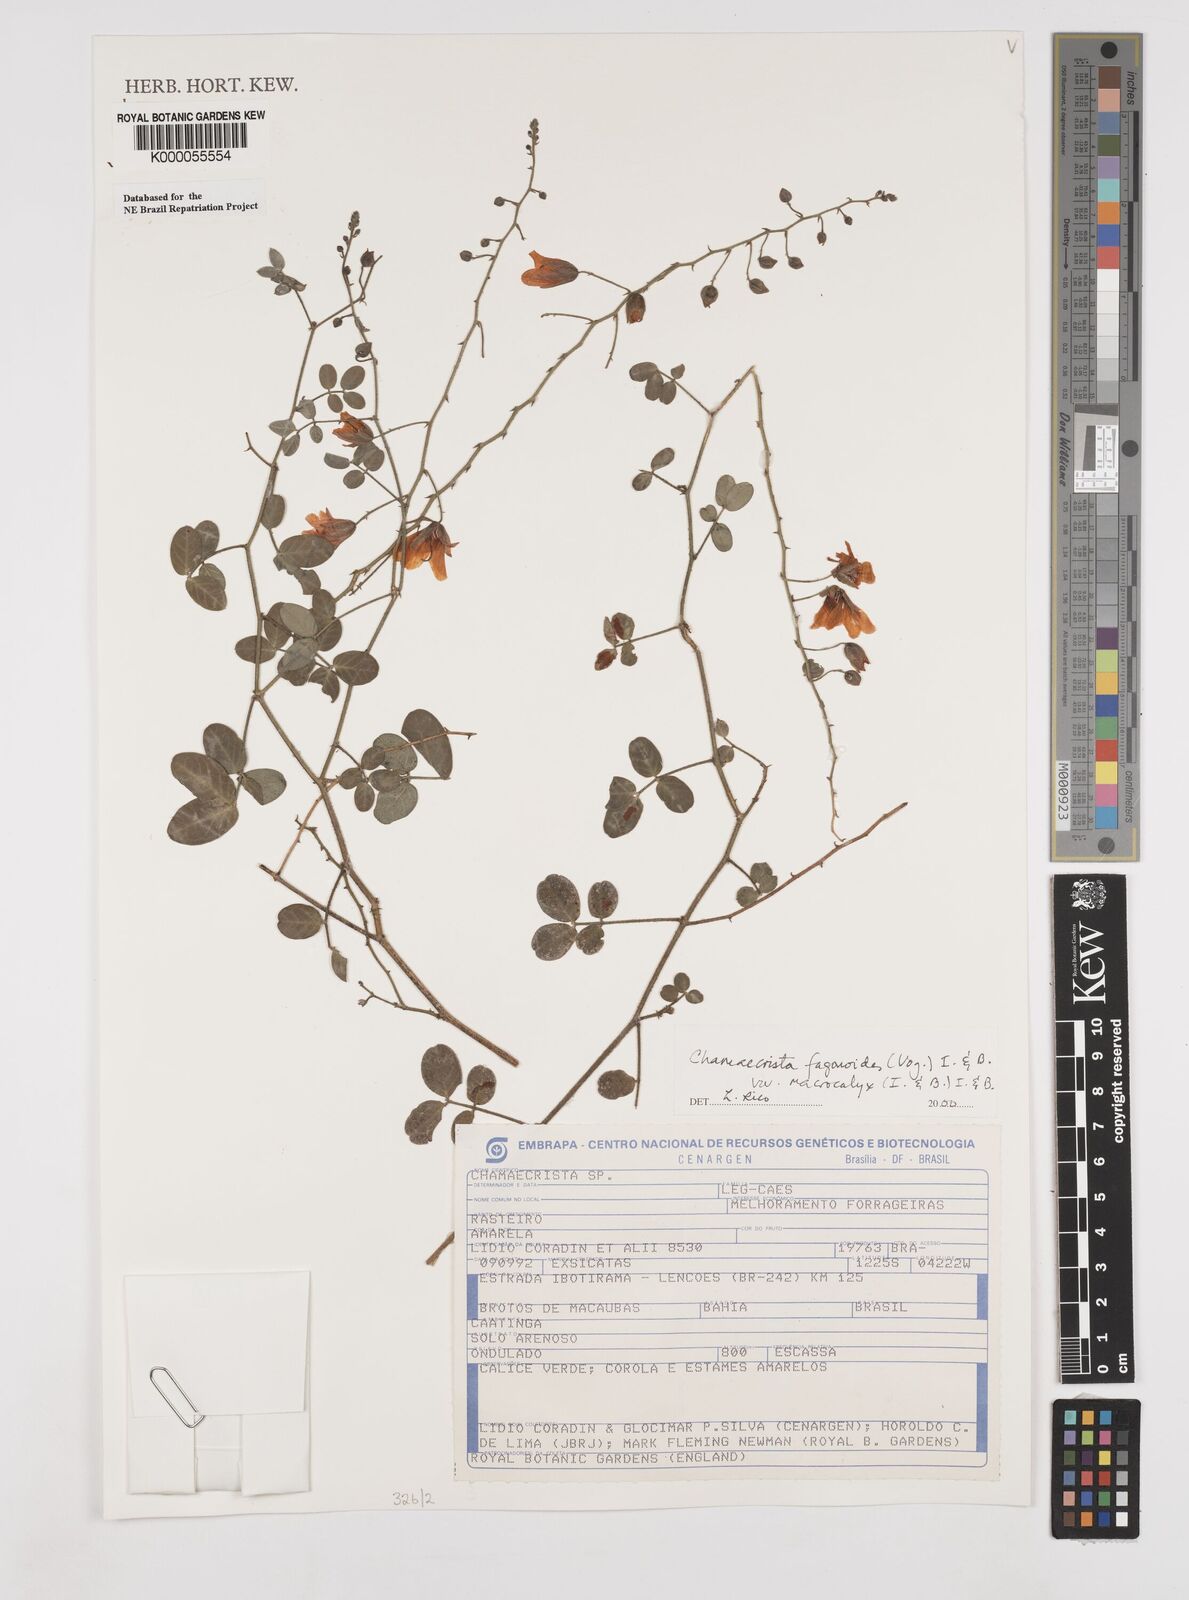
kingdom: Plantae
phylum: Tracheophyta
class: Magnoliopsida
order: Fabales
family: Fabaceae
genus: Chamaecrista
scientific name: Chamaecrista fagonioides
